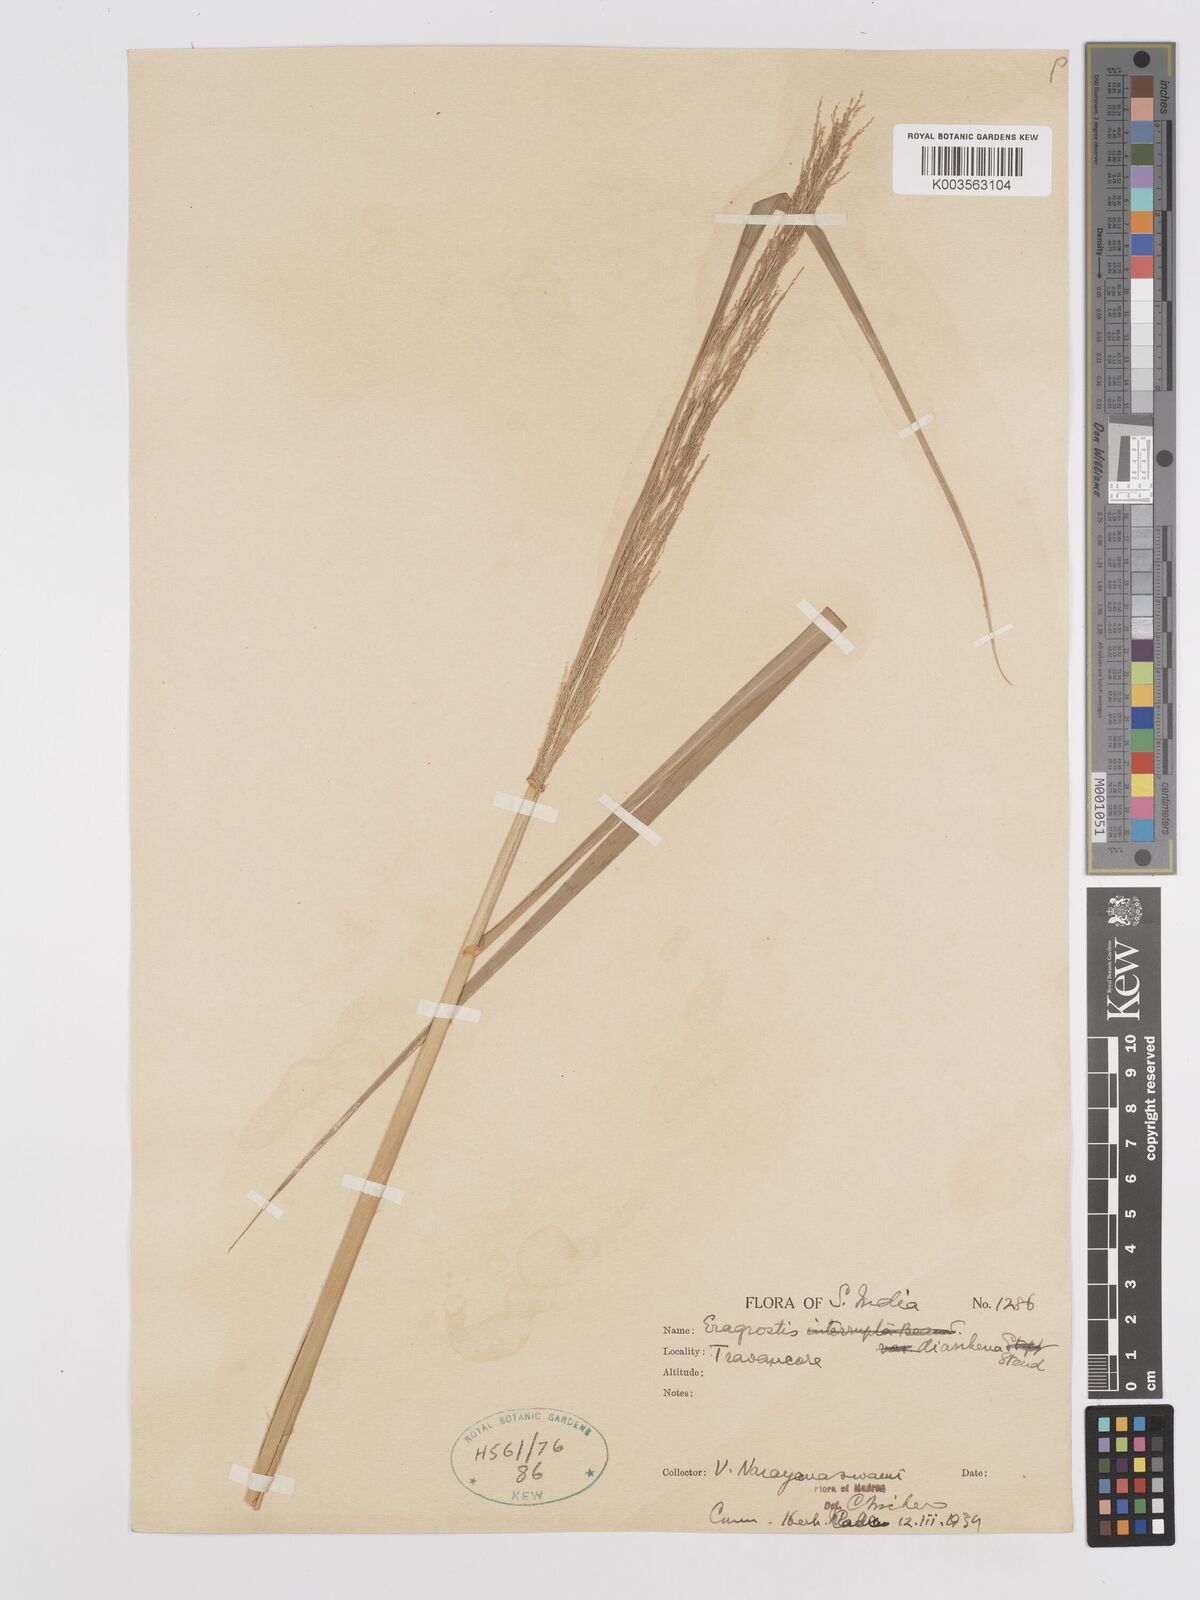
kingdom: Plantae
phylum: Tracheophyta
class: Liliopsida
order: Poales
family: Poaceae
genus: Eragrostis
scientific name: Eragrostis japonica
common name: Pond lovegrass
